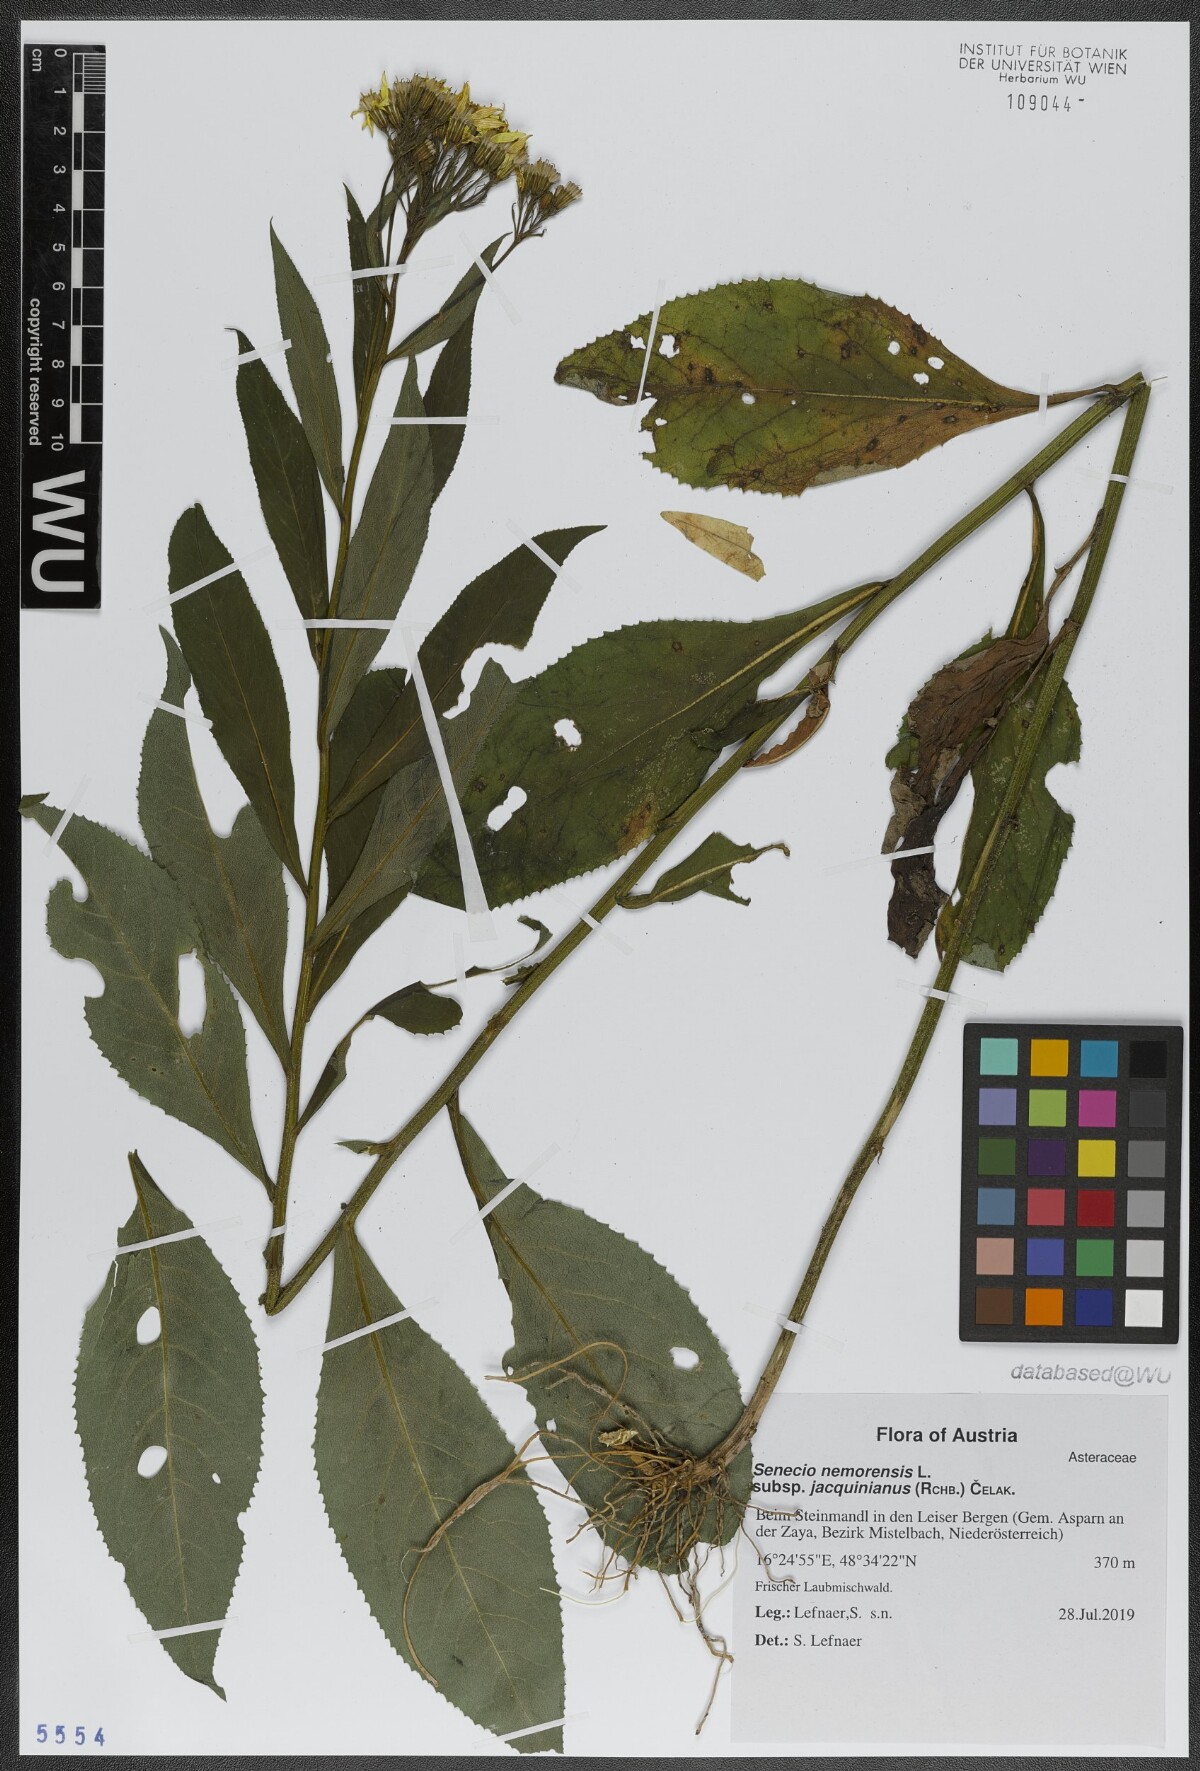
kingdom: Plantae
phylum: Tracheophyta
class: Magnoliopsida
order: Asterales
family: Asteraceae
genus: Senecio
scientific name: Senecio germanicus
